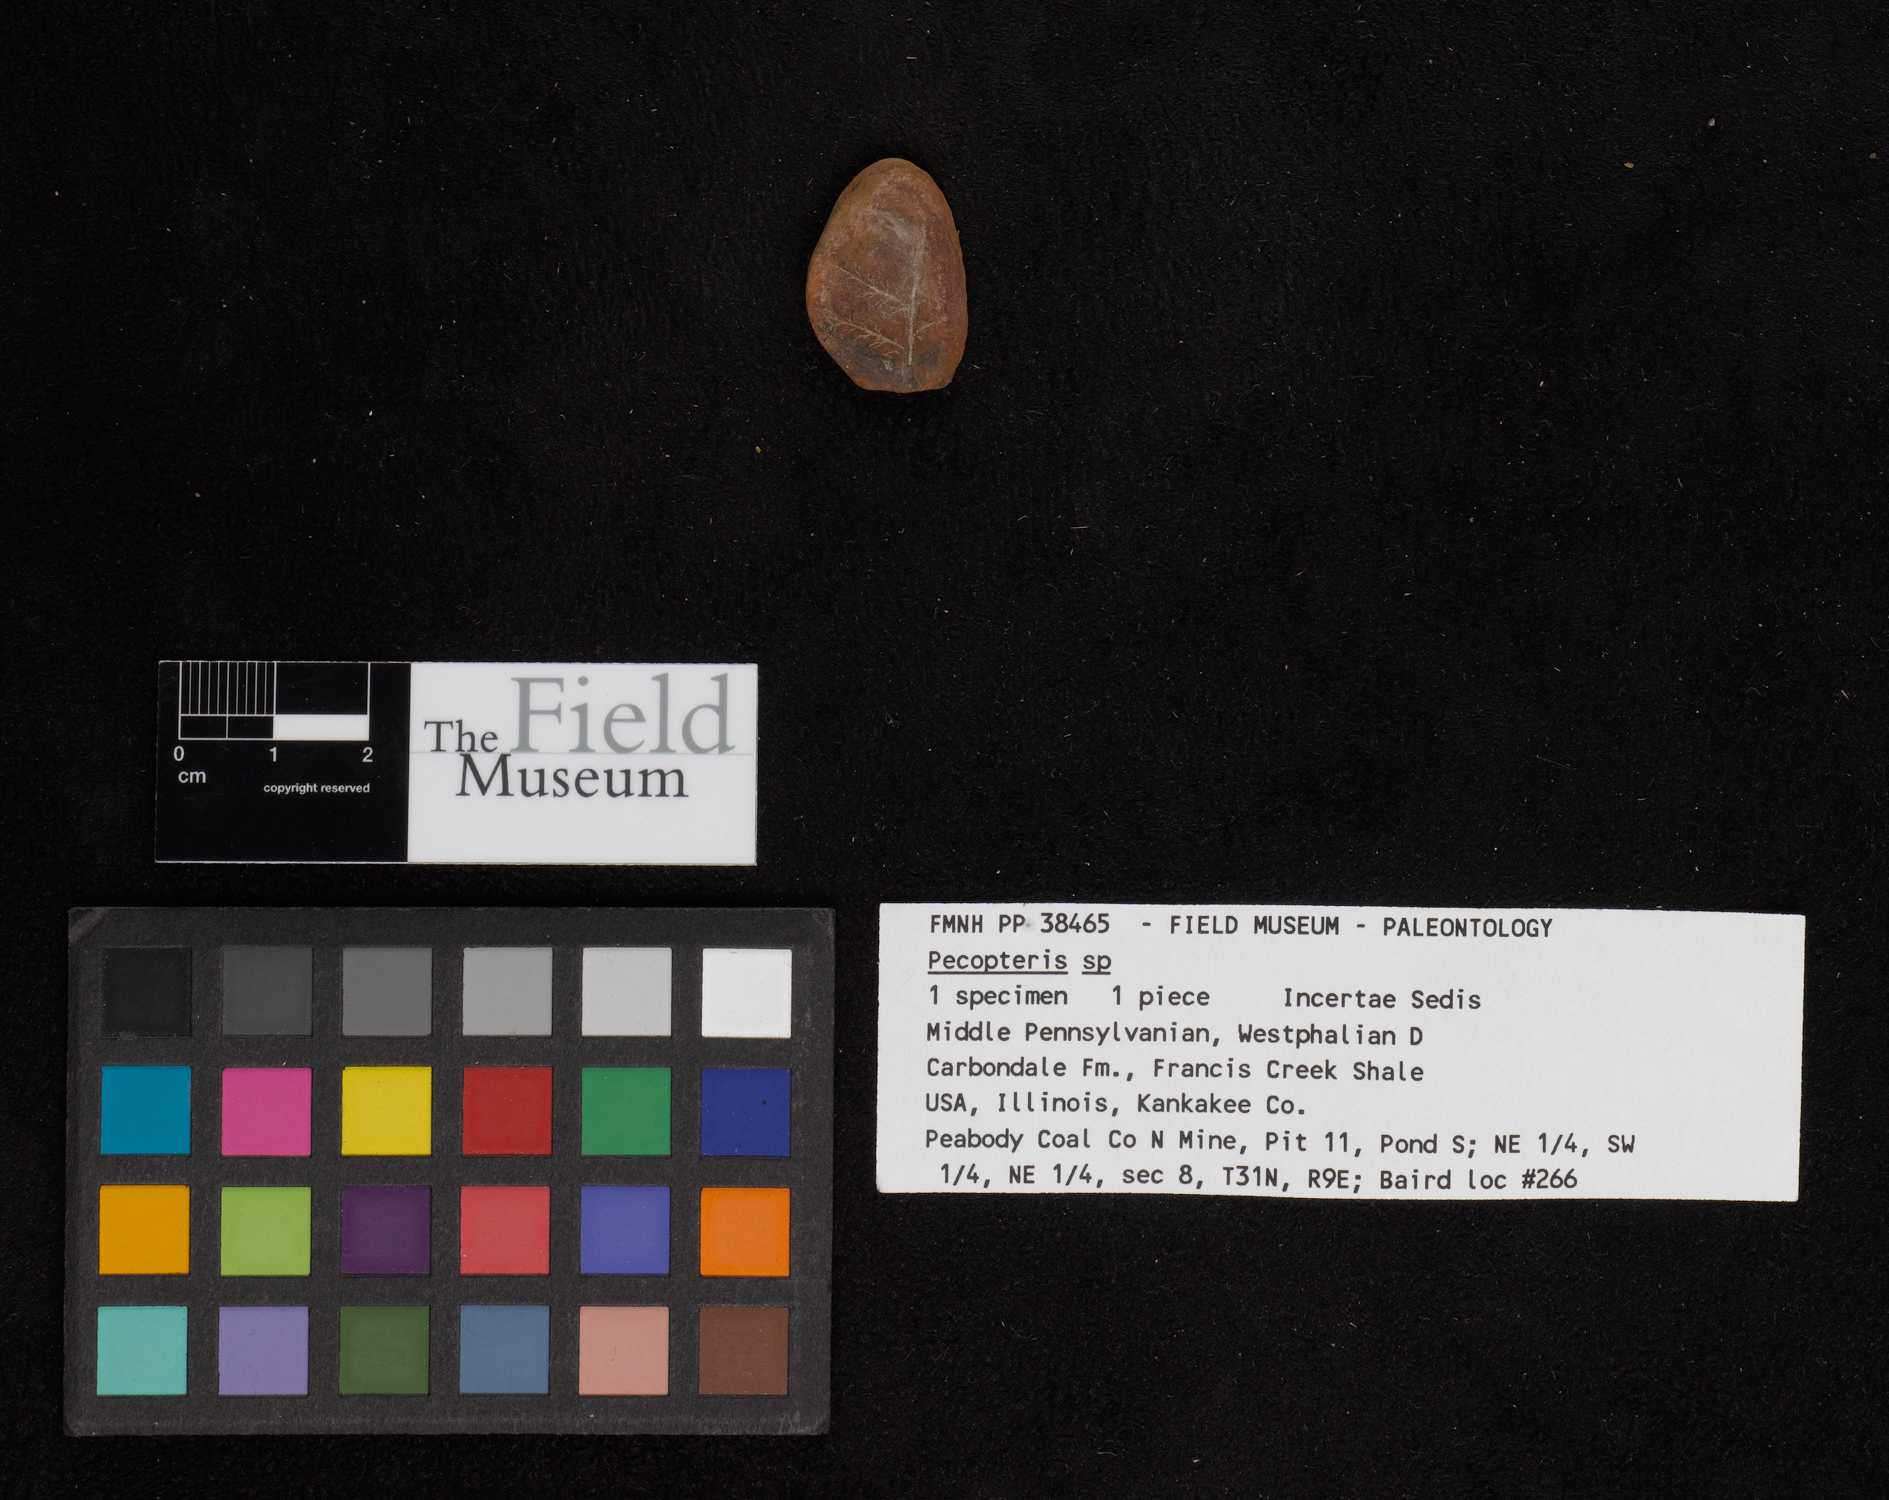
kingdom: Plantae
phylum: Tracheophyta
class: Polypodiopsida
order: Marattiales
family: Asterothecaceae
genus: Pecopteris
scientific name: Pecopteris
